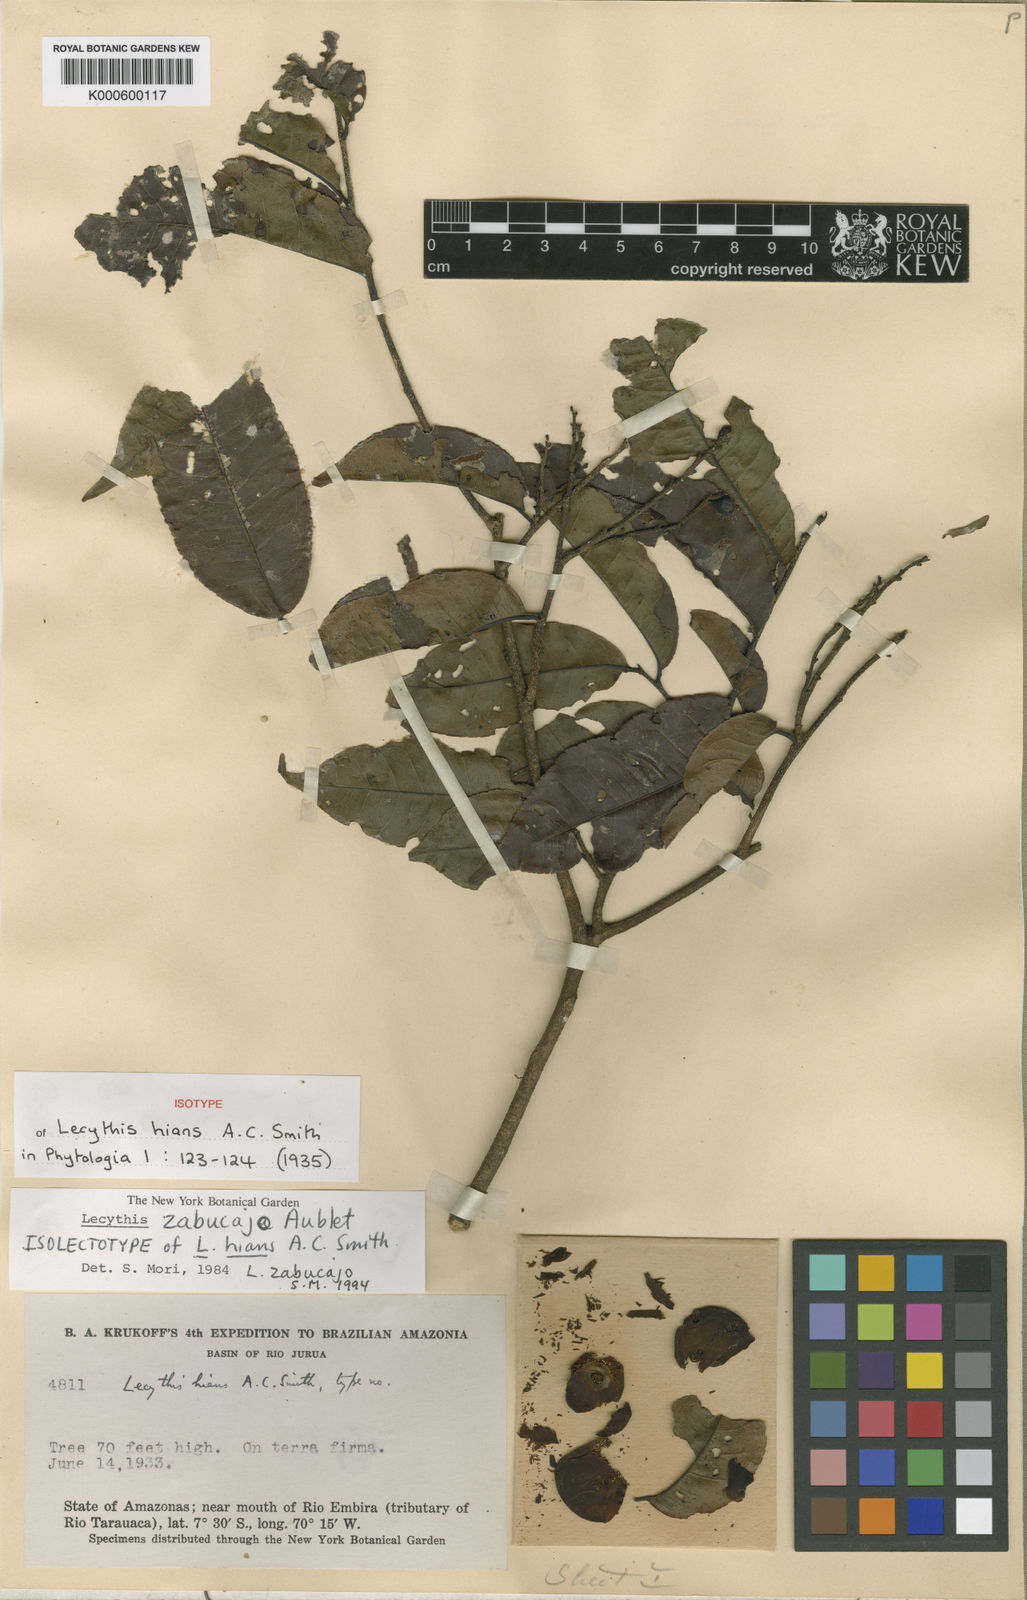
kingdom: Plantae
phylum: Tracheophyta
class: Magnoliopsida
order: Ericales
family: Lecythidaceae
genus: Lecythis
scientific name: Lecythis zabucajo
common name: Paradise-nut
